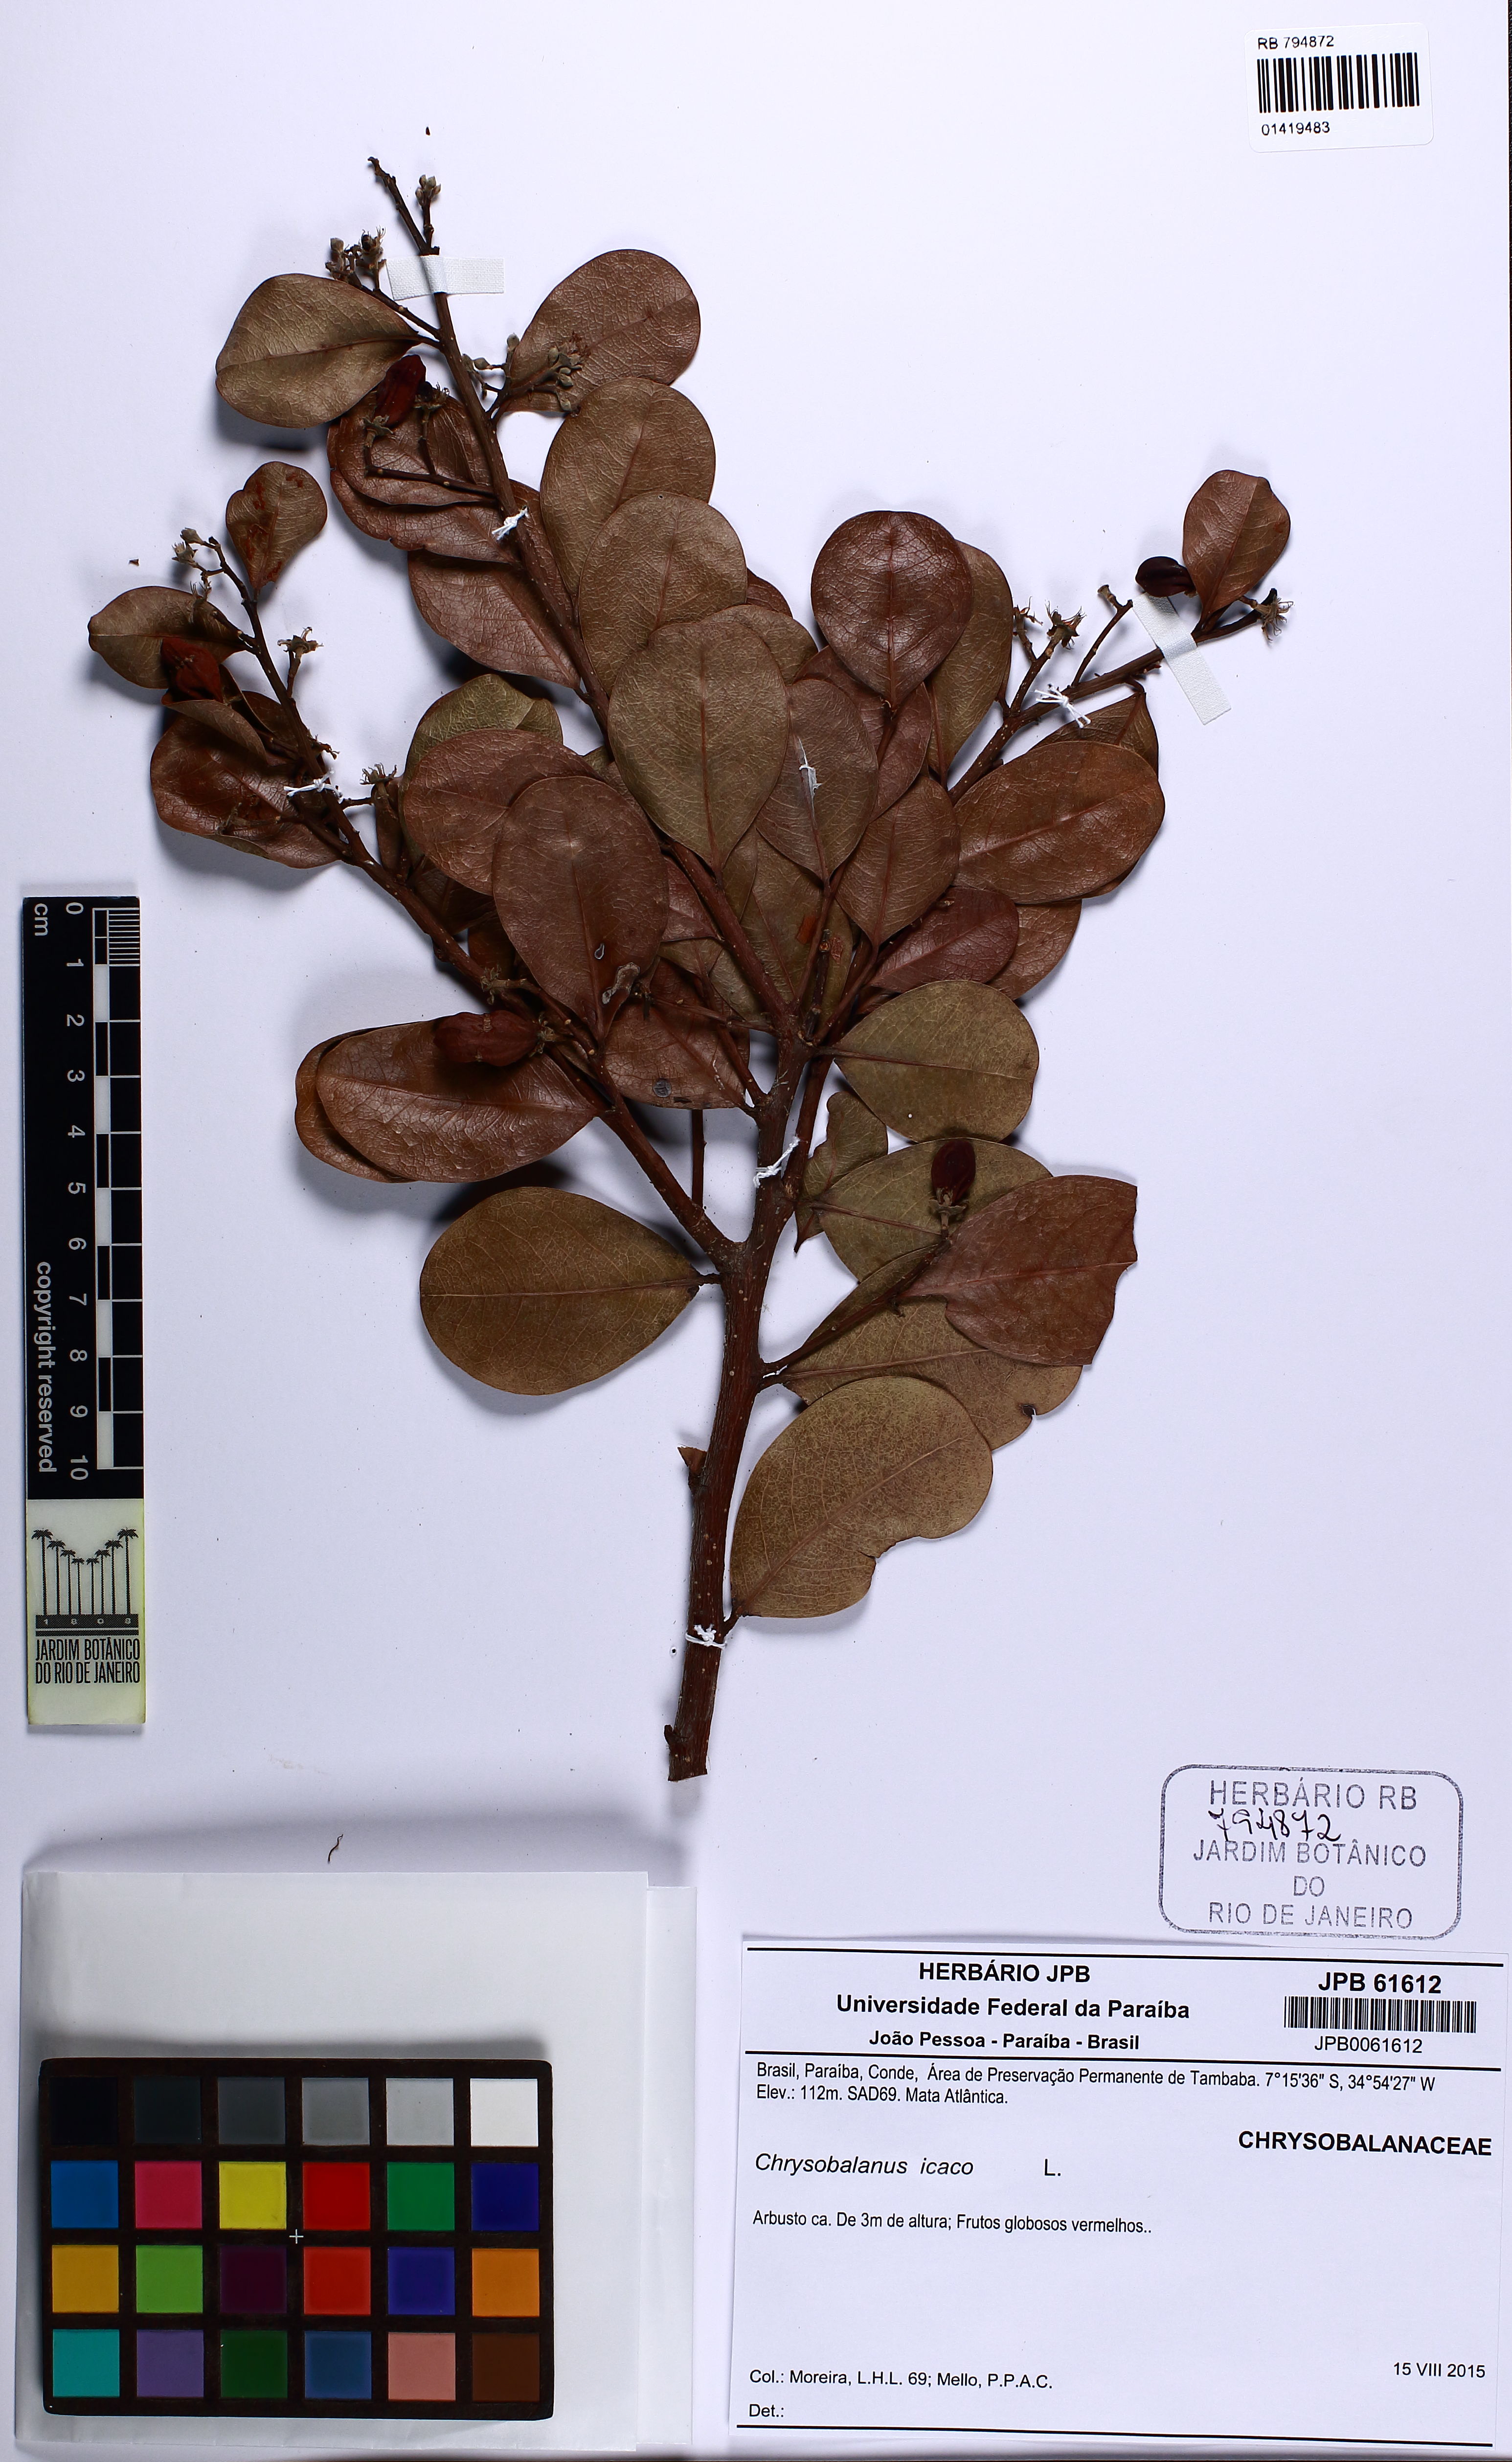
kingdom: Plantae
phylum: Tracheophyta
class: Magnoliopsida
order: Malpighiales
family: Chrysobalanaceae
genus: Chrysobalanus
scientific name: Chrysobalanus icaco
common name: Coco plum
